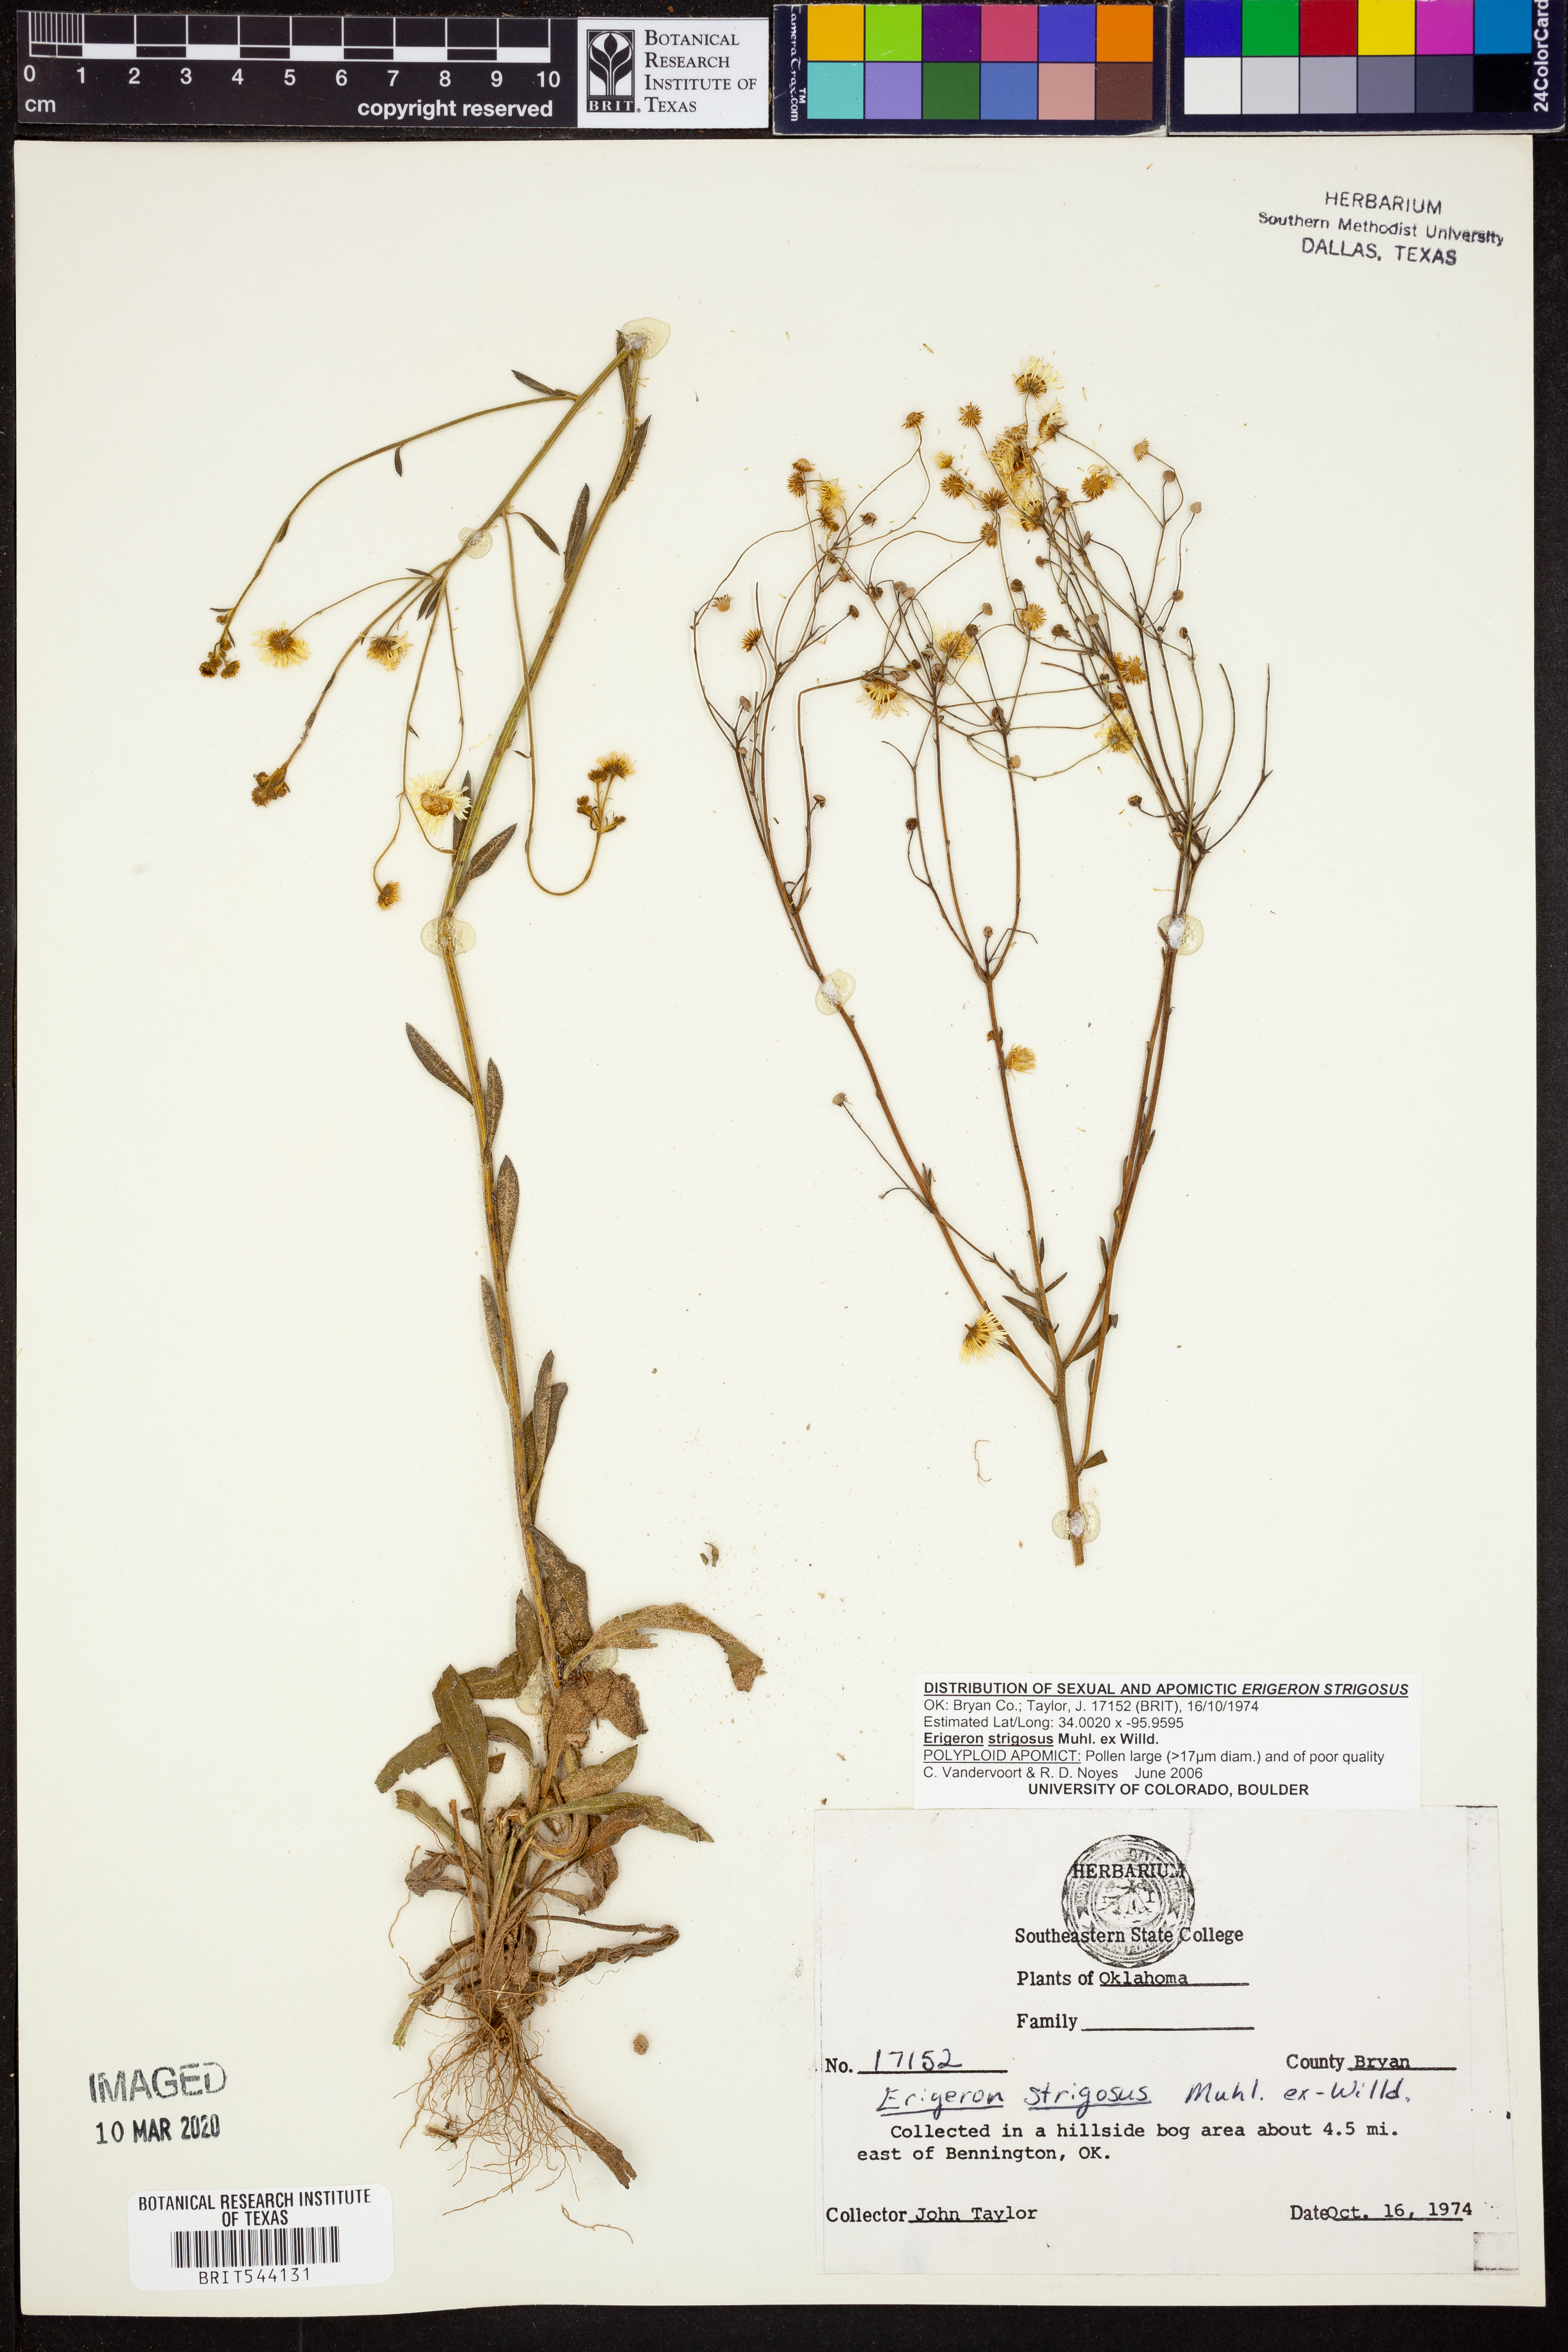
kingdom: Plantae
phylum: Tracheophyta
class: Magnoliopsida
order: Asterales
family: Asteraceae
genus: Erigeron
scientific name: Erigeron strigosus
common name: Common eastern fleabane
